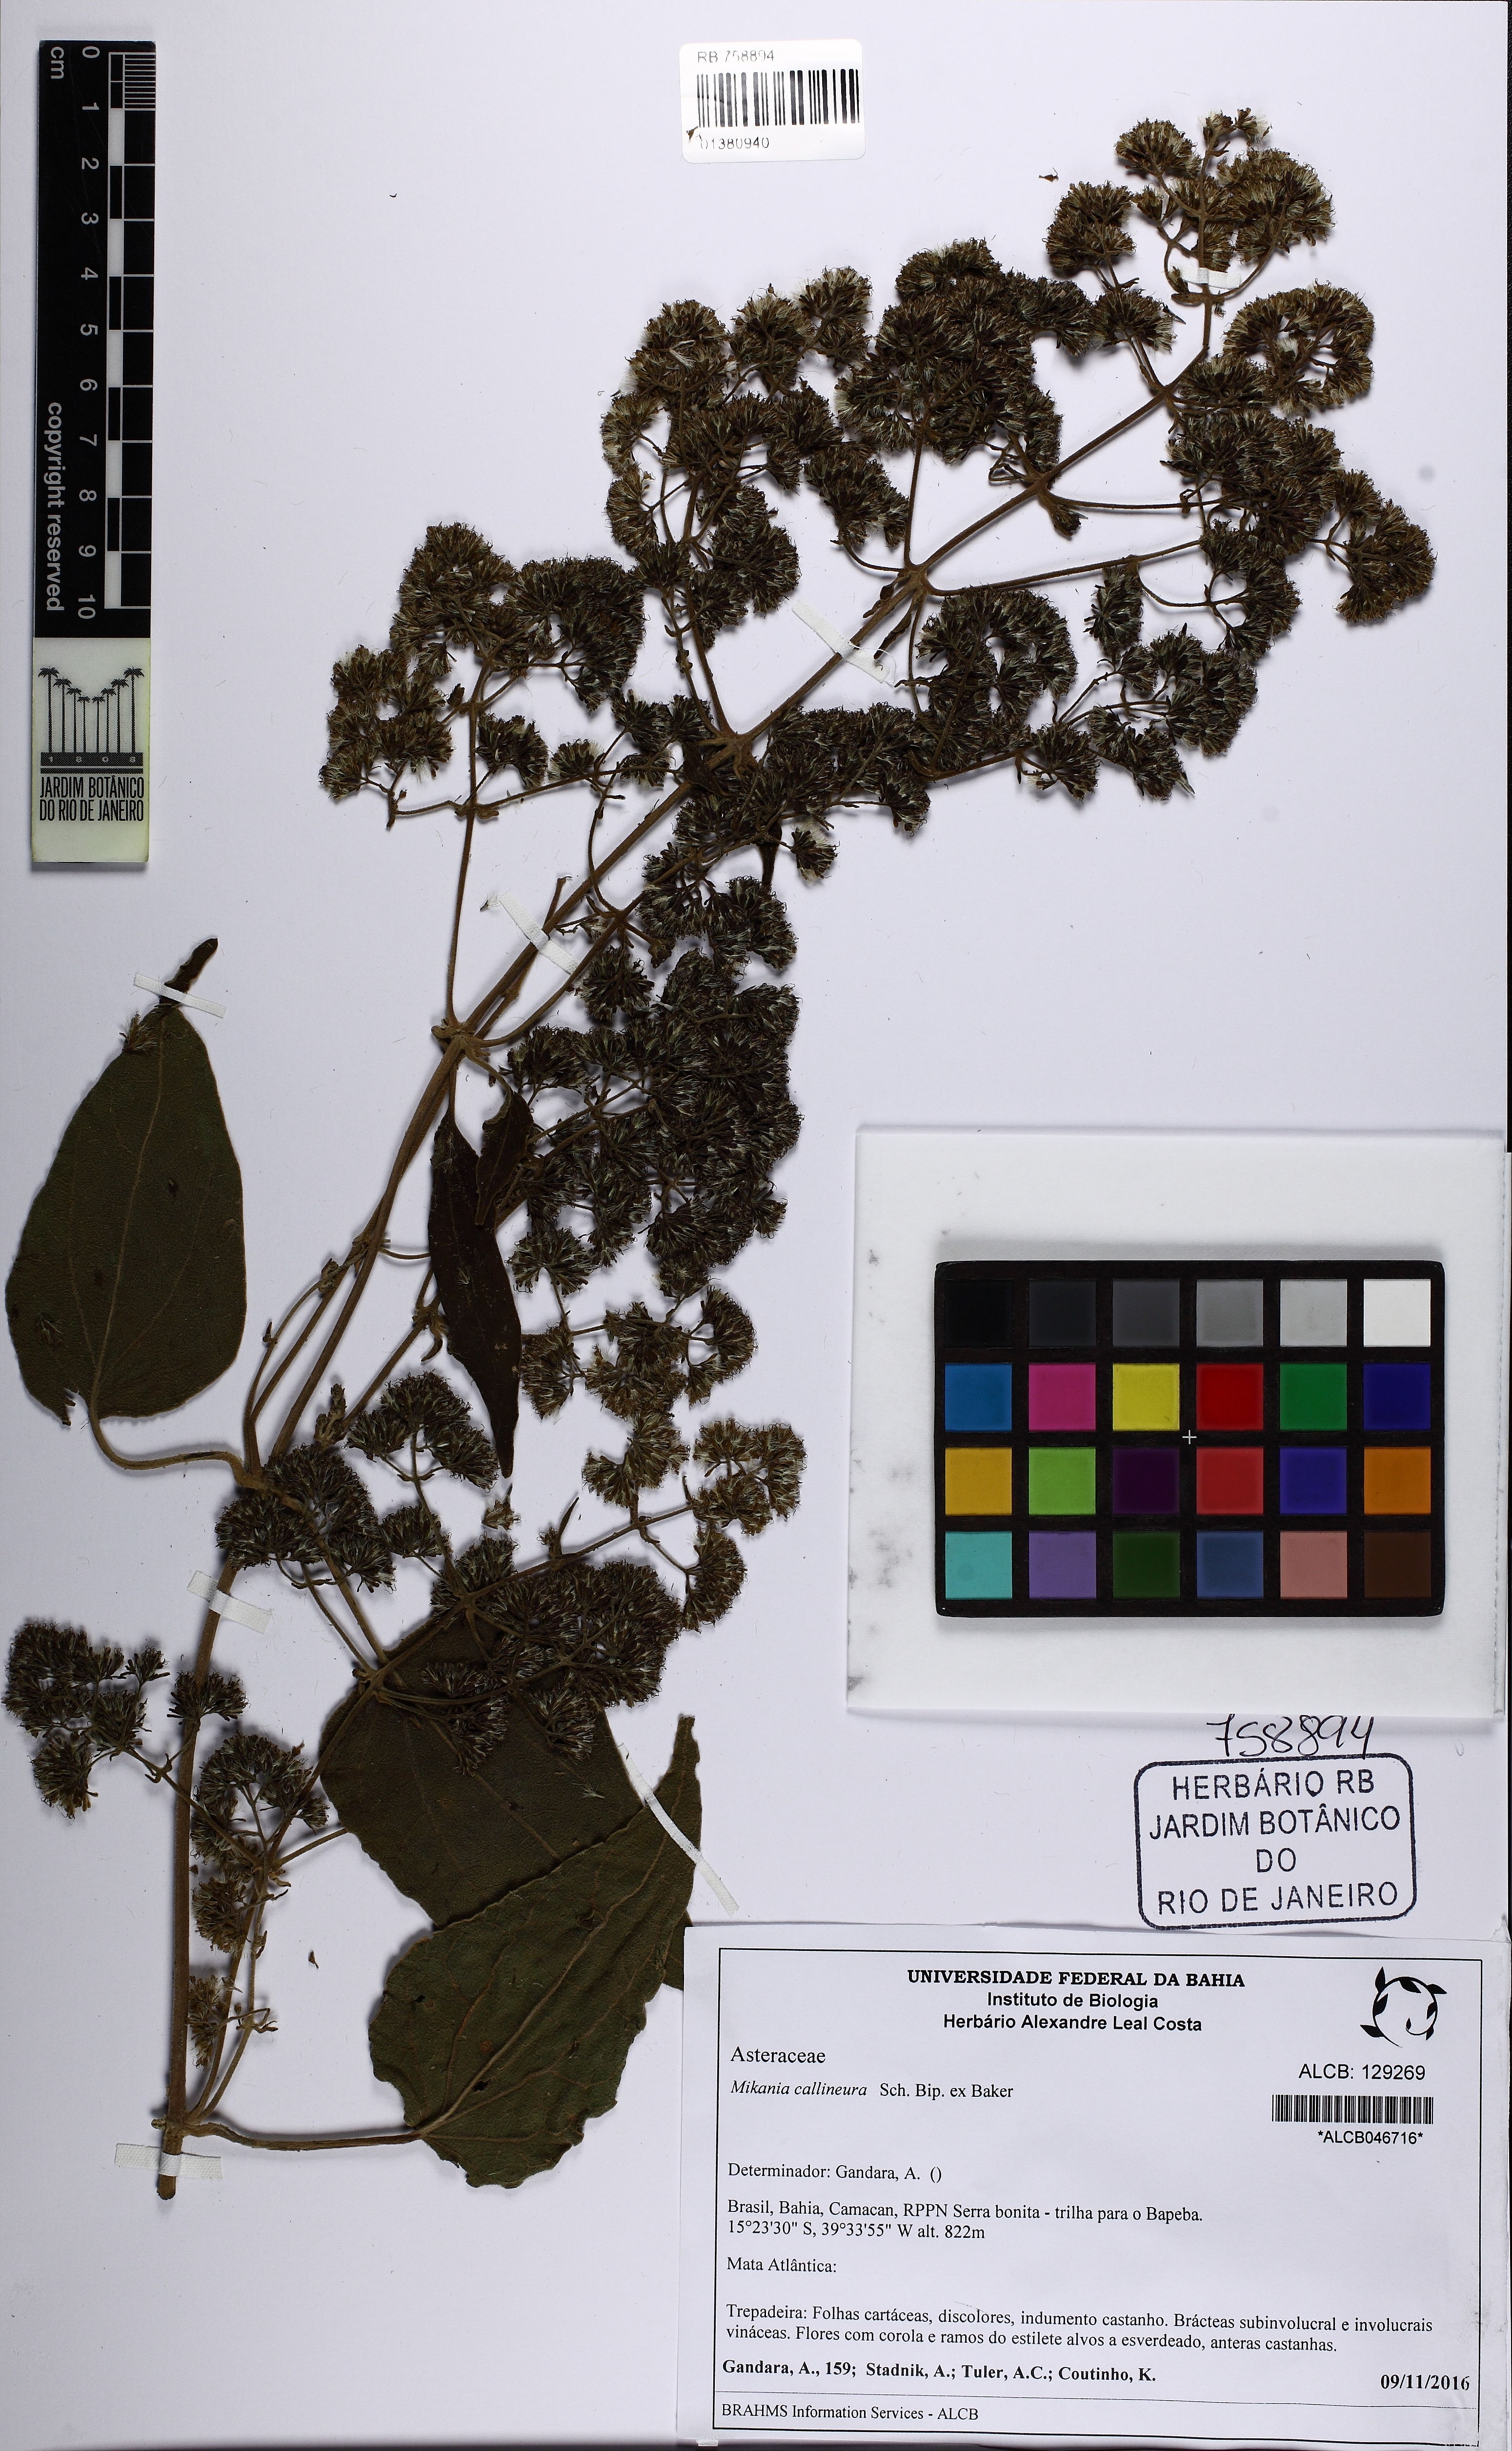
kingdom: Plantae
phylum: Tracheophyta
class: Magnoliopsida
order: Asterales
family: Asteraceae
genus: Mikania
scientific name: Mikania callineura
